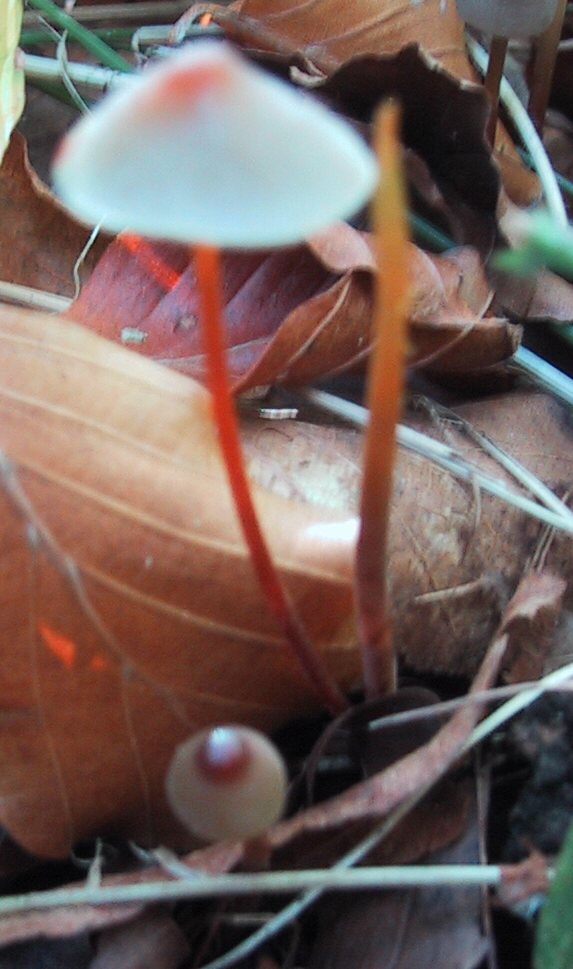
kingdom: Fungi
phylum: Basidiomycota
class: Agaricomycetes
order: Agaricales
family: Mycenaceae
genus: Mycena
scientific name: Mycena crocata
